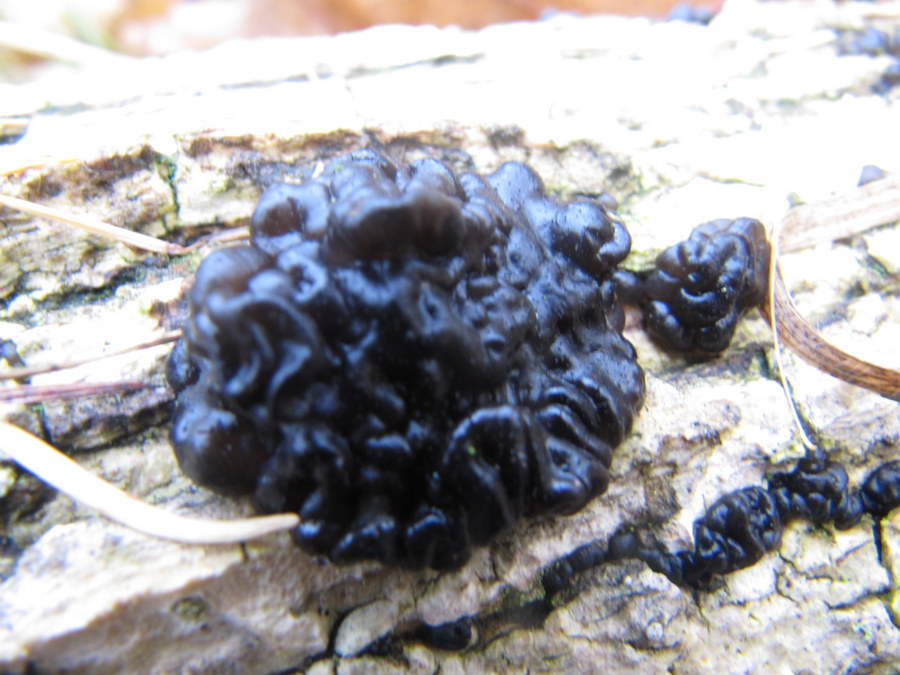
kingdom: Fungi
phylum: Basidiomycota
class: Agaricomycetes
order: Auriculariales
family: Auriculariaceae
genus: Exidia
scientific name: Exidia nigricans
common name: almindelig bævretop
